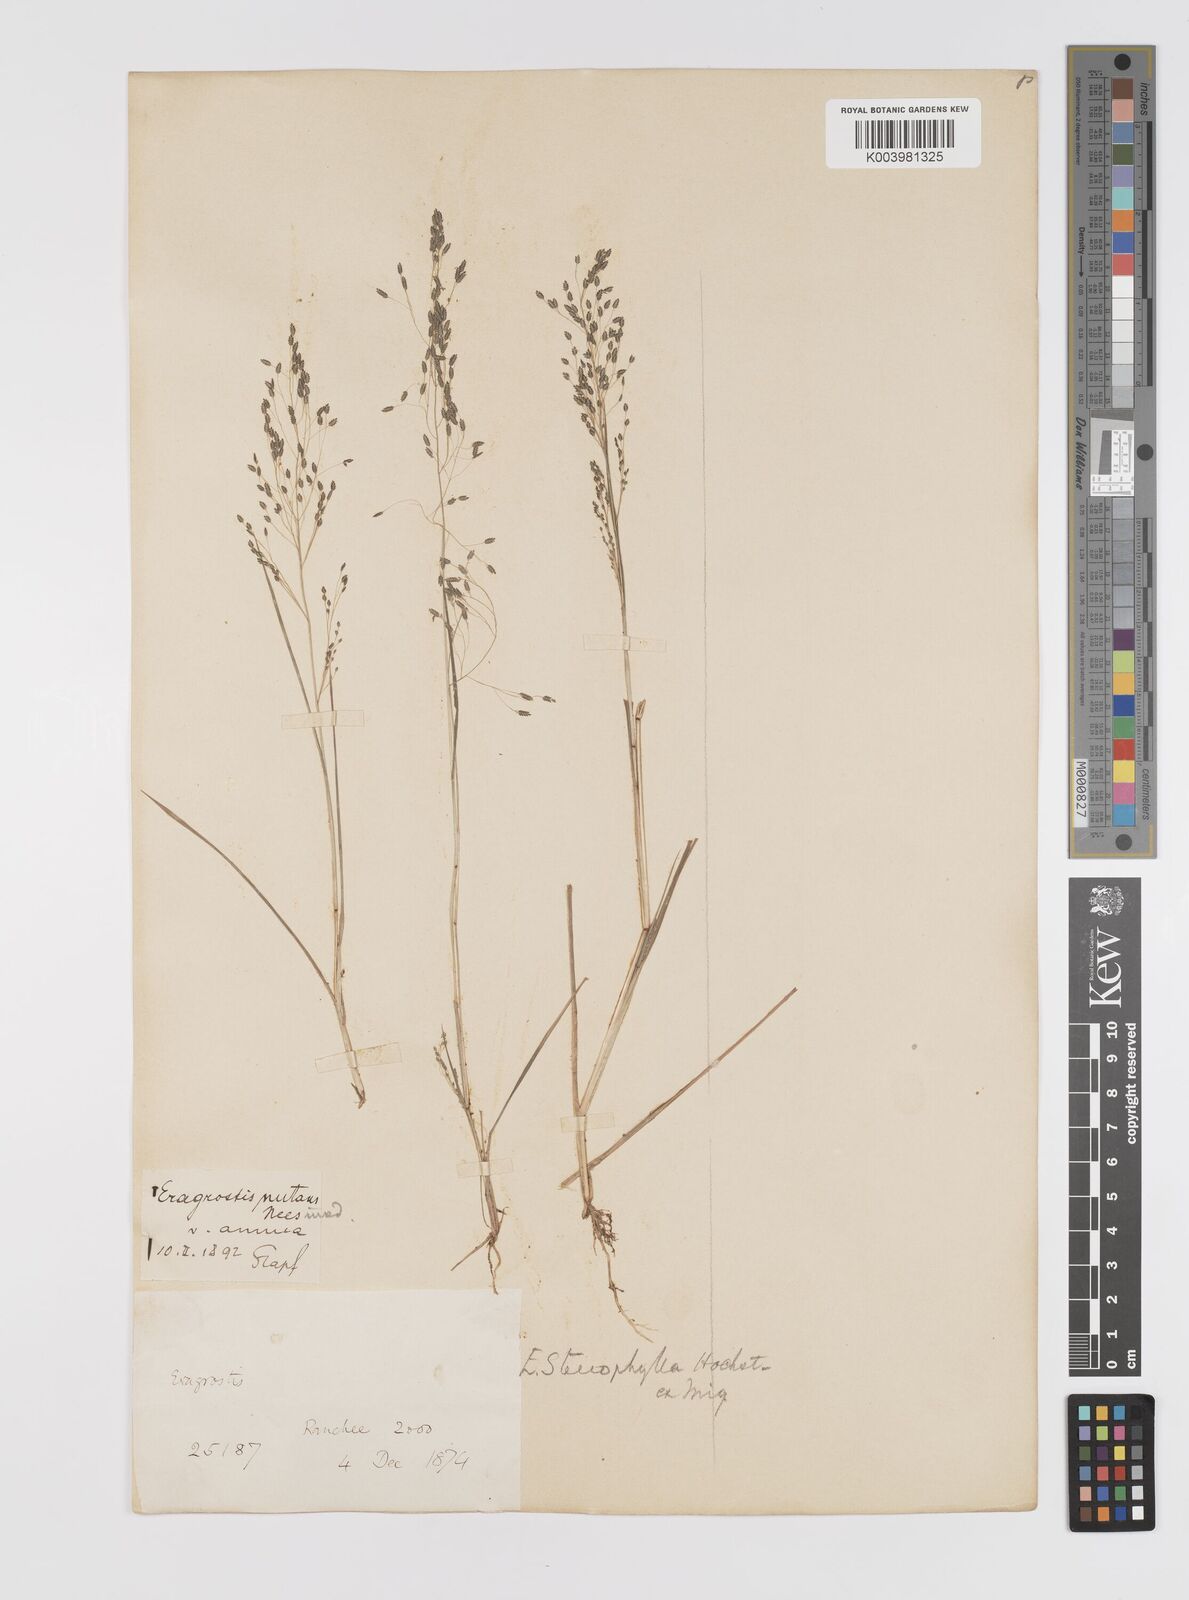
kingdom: Plantae
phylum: Tracheophyta
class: Liliopsida
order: Poales
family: Poaceae
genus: Eragrostis
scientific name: Eragrostis gangetica
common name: Slimflower lovegrass
